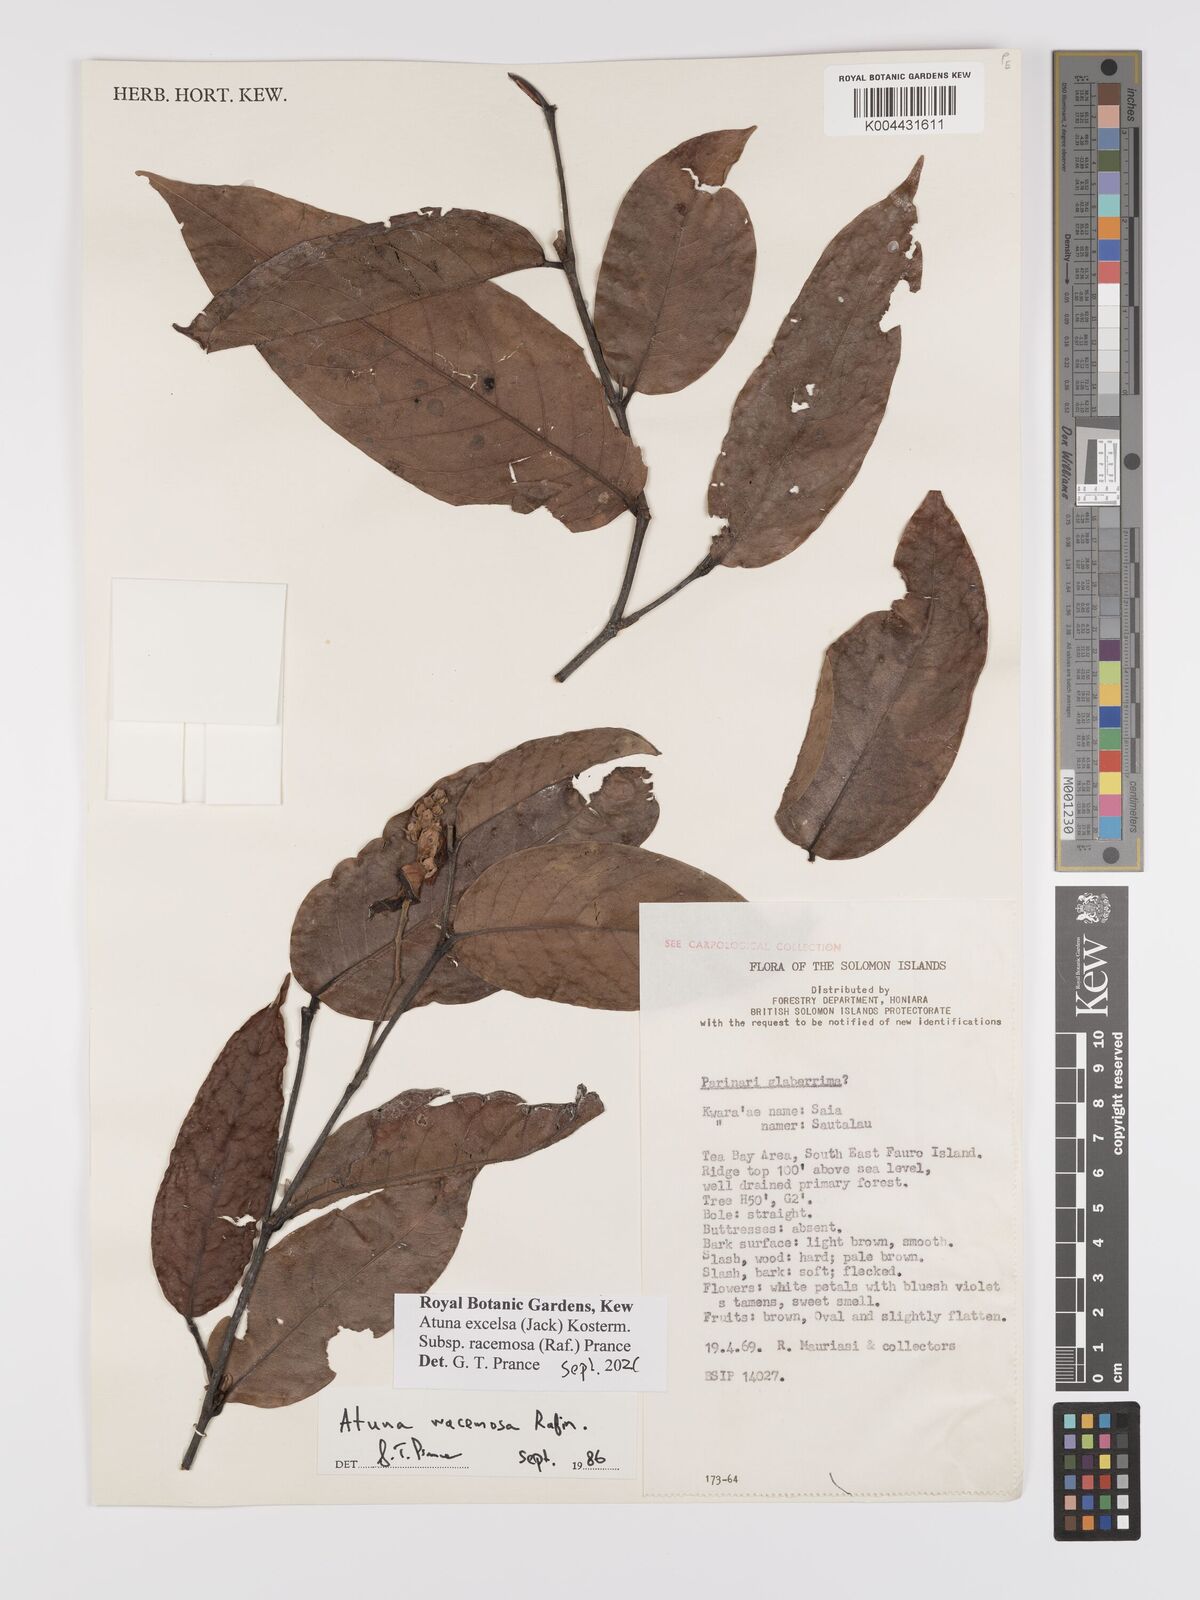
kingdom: Plantae
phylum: Tracheophyta
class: Magnoliopsida
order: Malpighiales
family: Chrysobalanaceae
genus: Atuna
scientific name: Atuna excelsa
